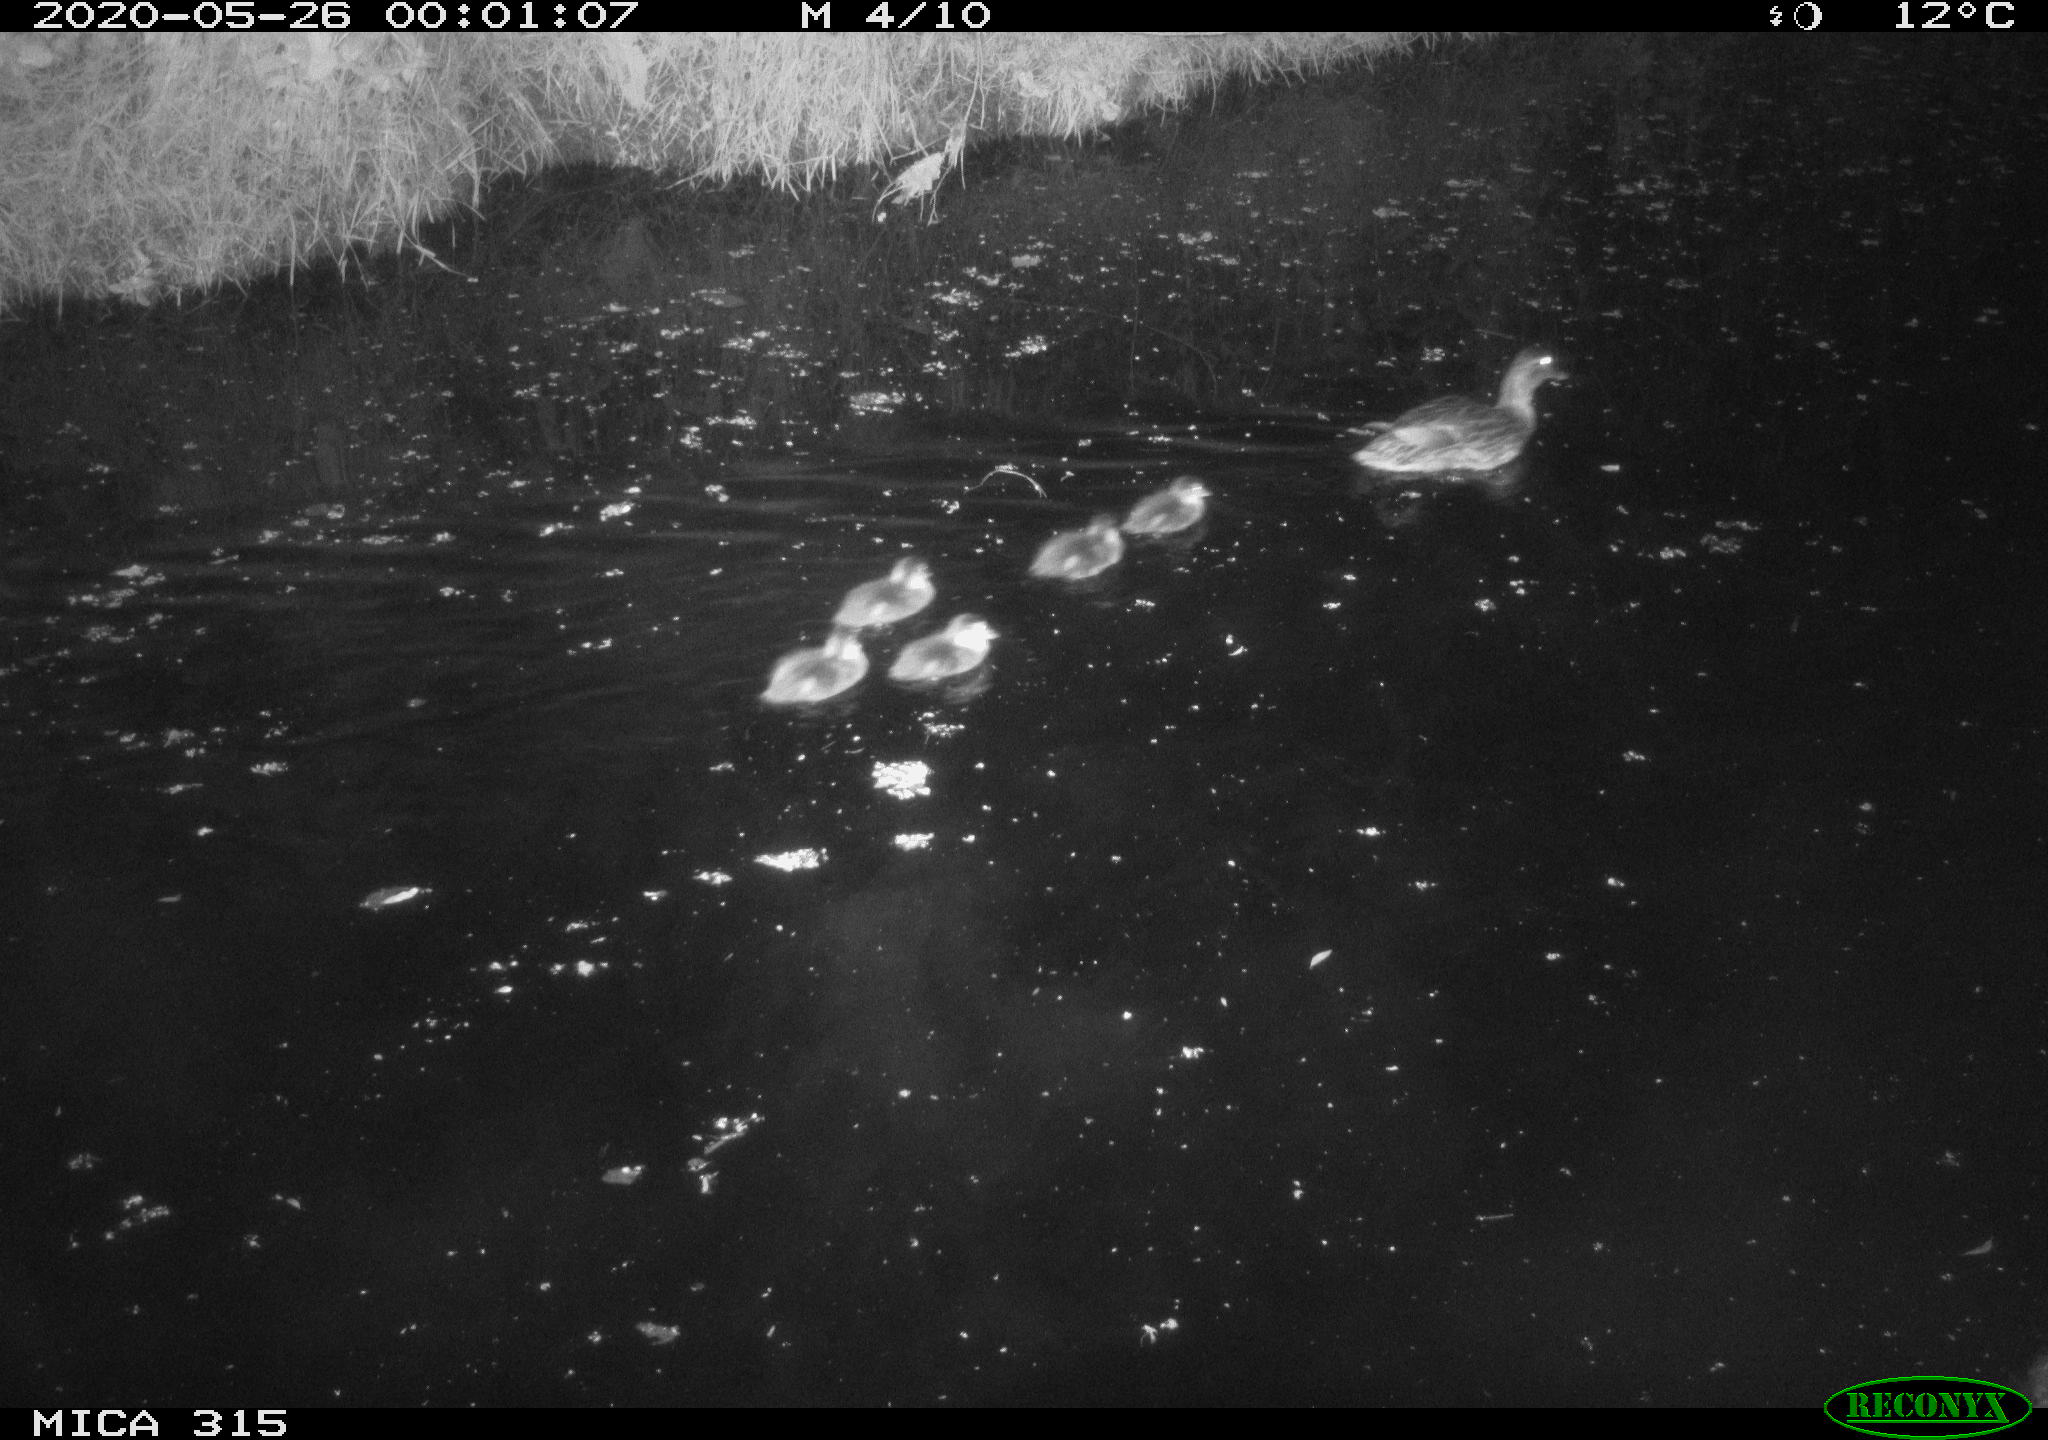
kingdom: Animalia
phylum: Chordata
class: Aves
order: Anseriformes
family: Anatidae
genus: Anas
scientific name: Anas platyrhynchos
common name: Mallard
